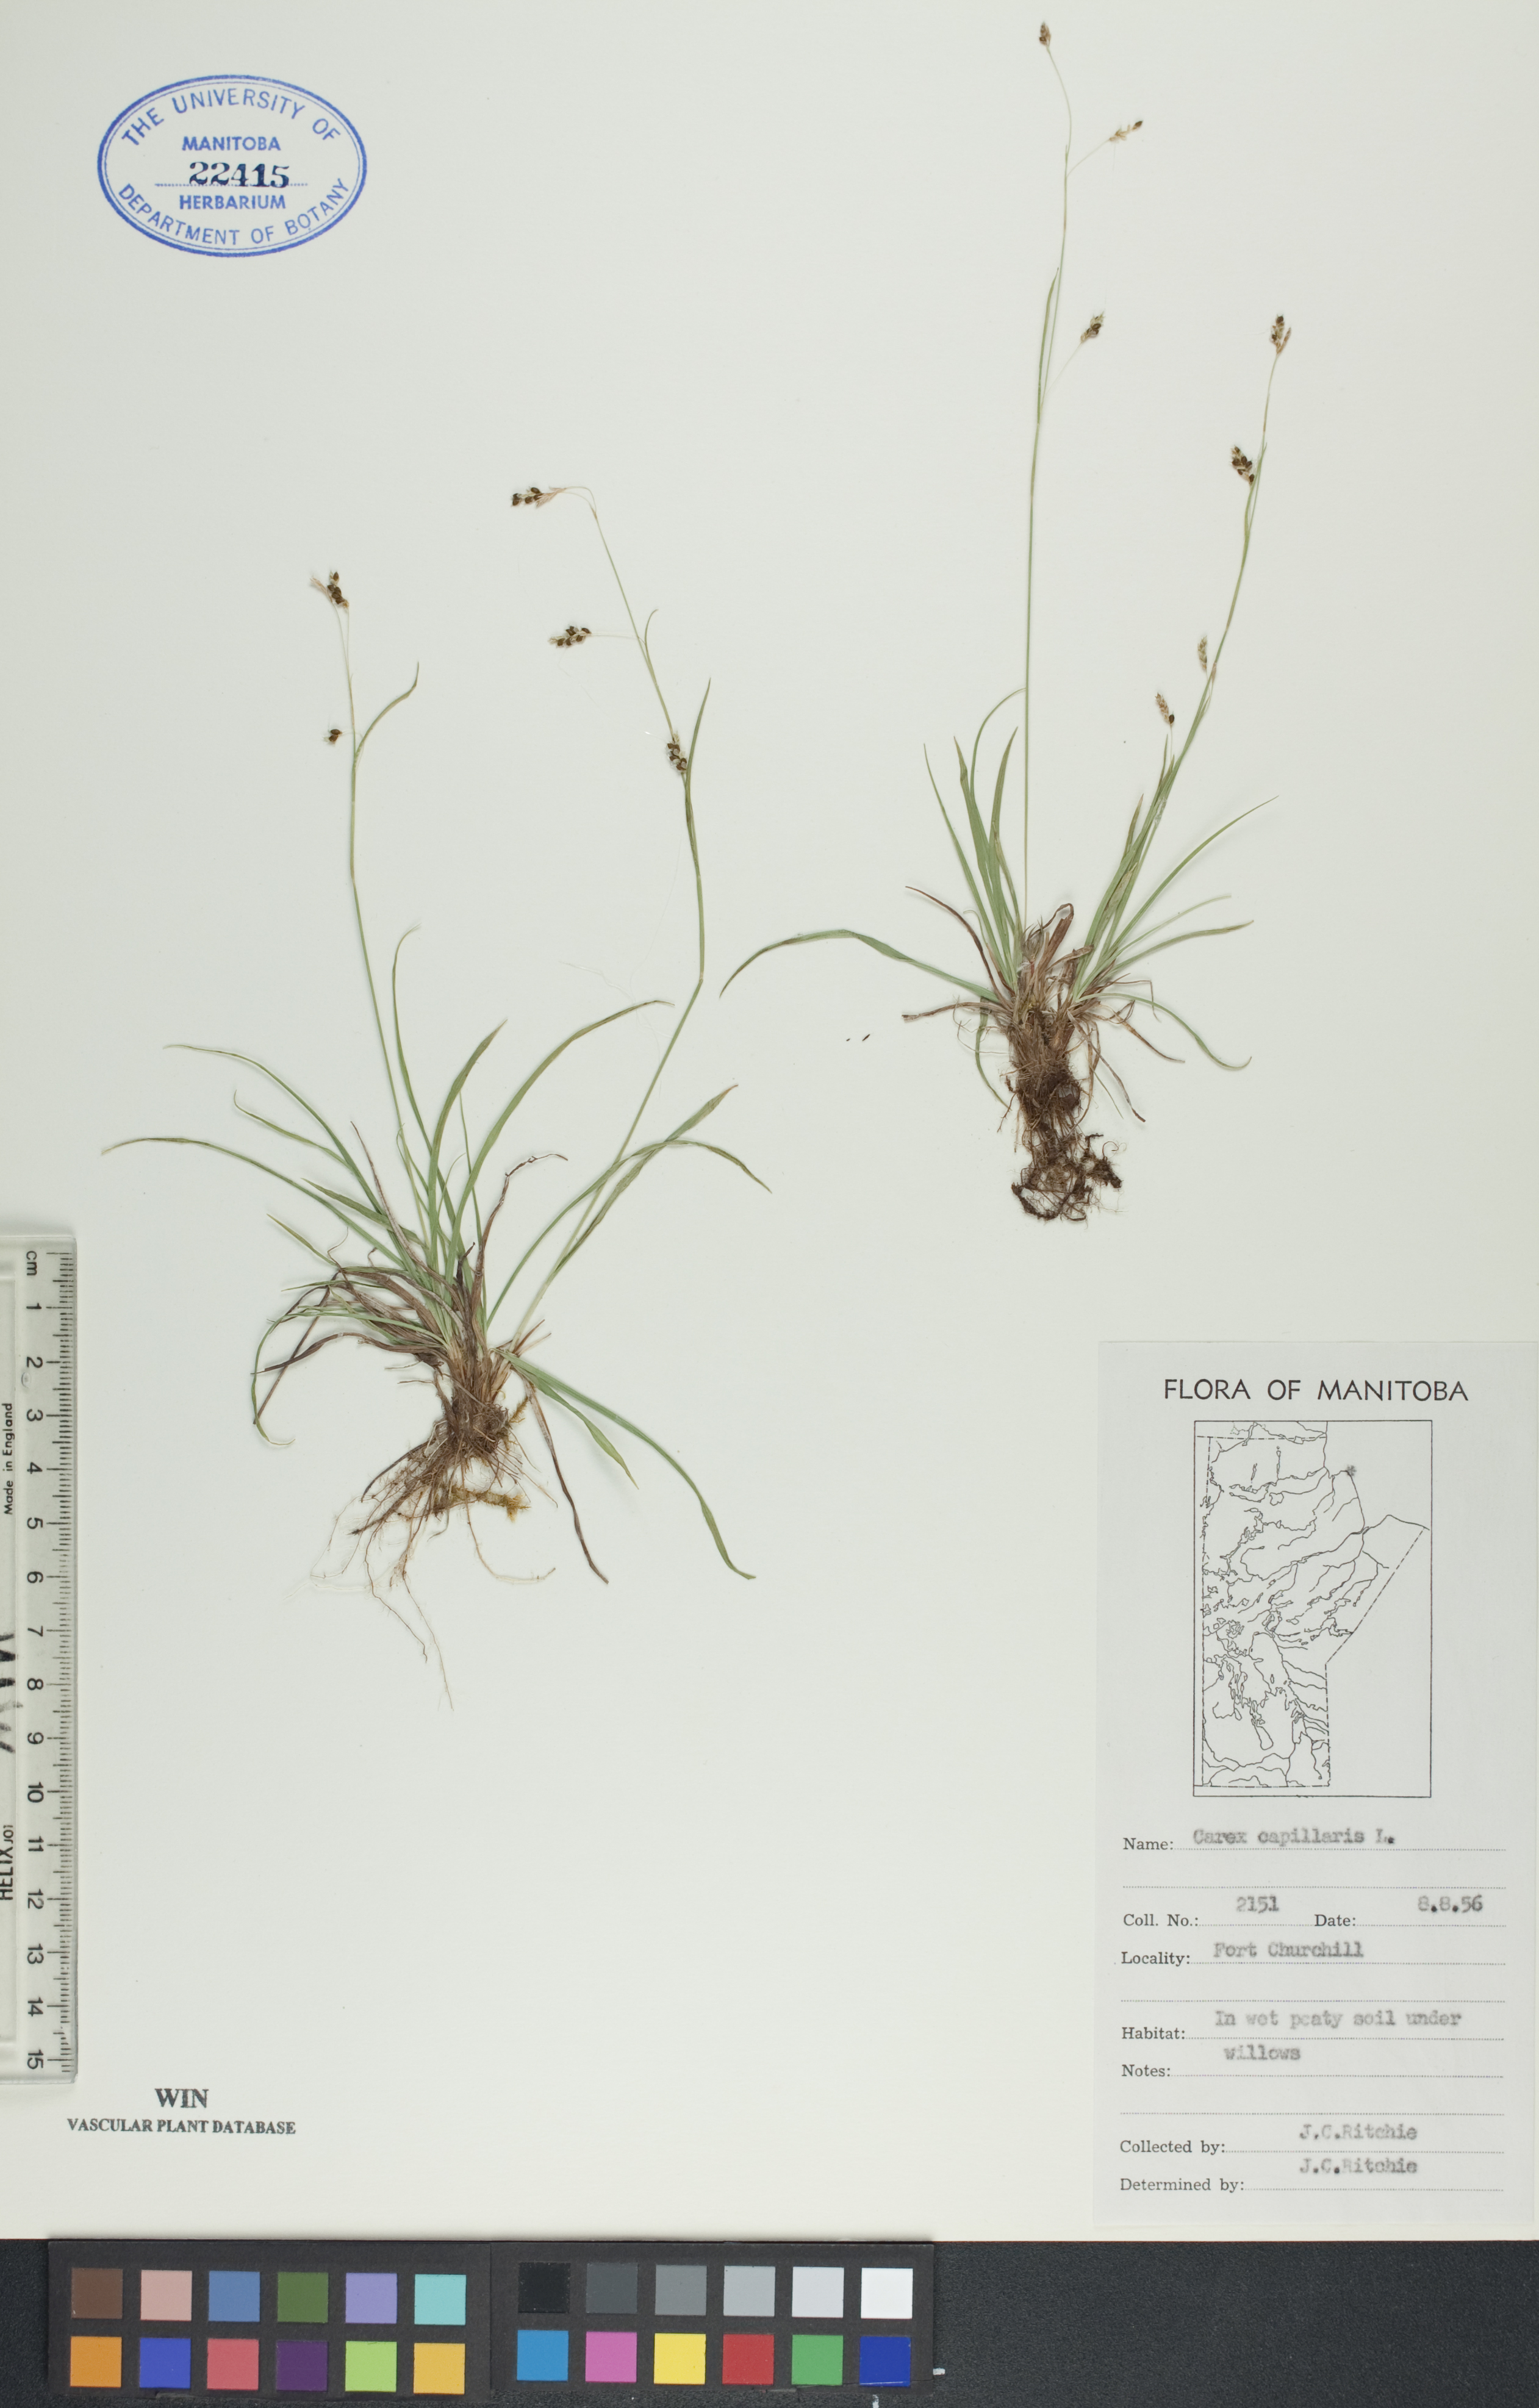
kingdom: Plantae
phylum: Tracheophyta
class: Liliopsida
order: Poales
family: Cyperaceae
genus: Carex
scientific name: Carex capillaris
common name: Hair sedge
